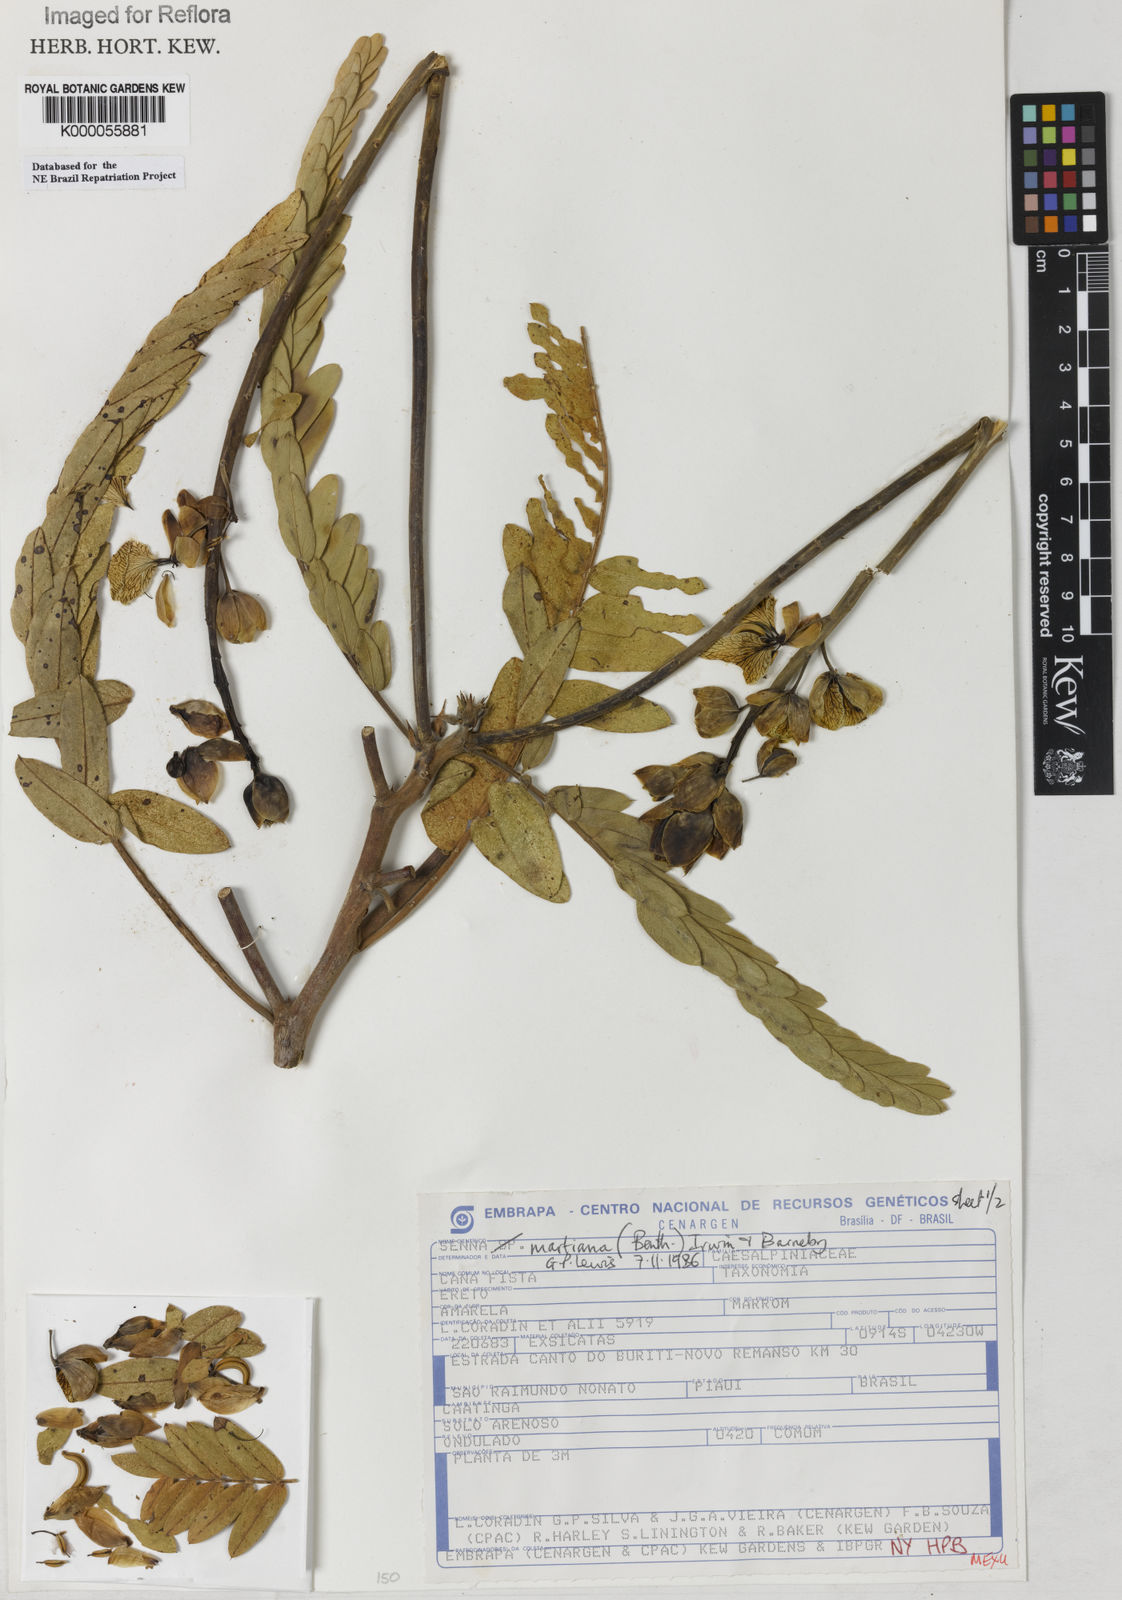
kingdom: Plantae
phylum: Tracheophyta
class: Magnoliopsida
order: Fabales
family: Fabaceae
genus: Senna
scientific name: Senna martiana
